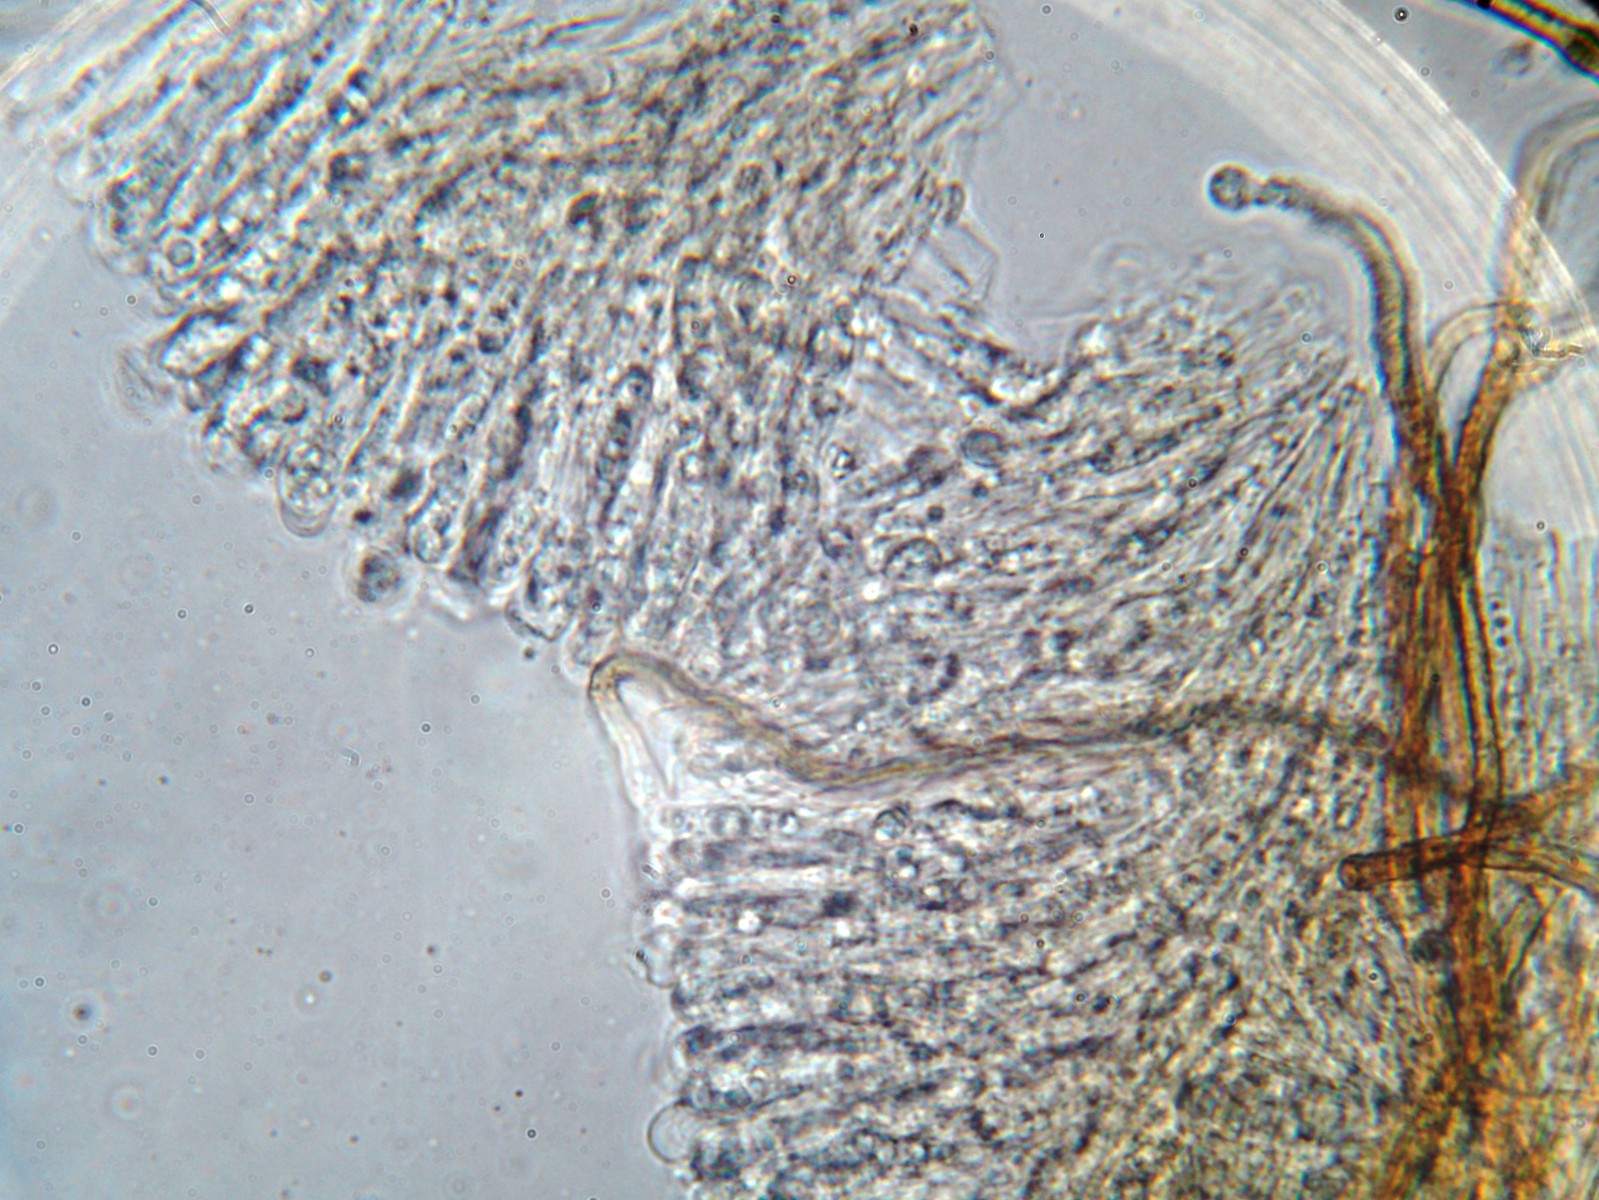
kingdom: Fungi
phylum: Ascomycota
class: Leotiomycetes
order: Helotiales
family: Lachnaceae
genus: Brunnipila
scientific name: Brunnipila
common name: frynseskive
